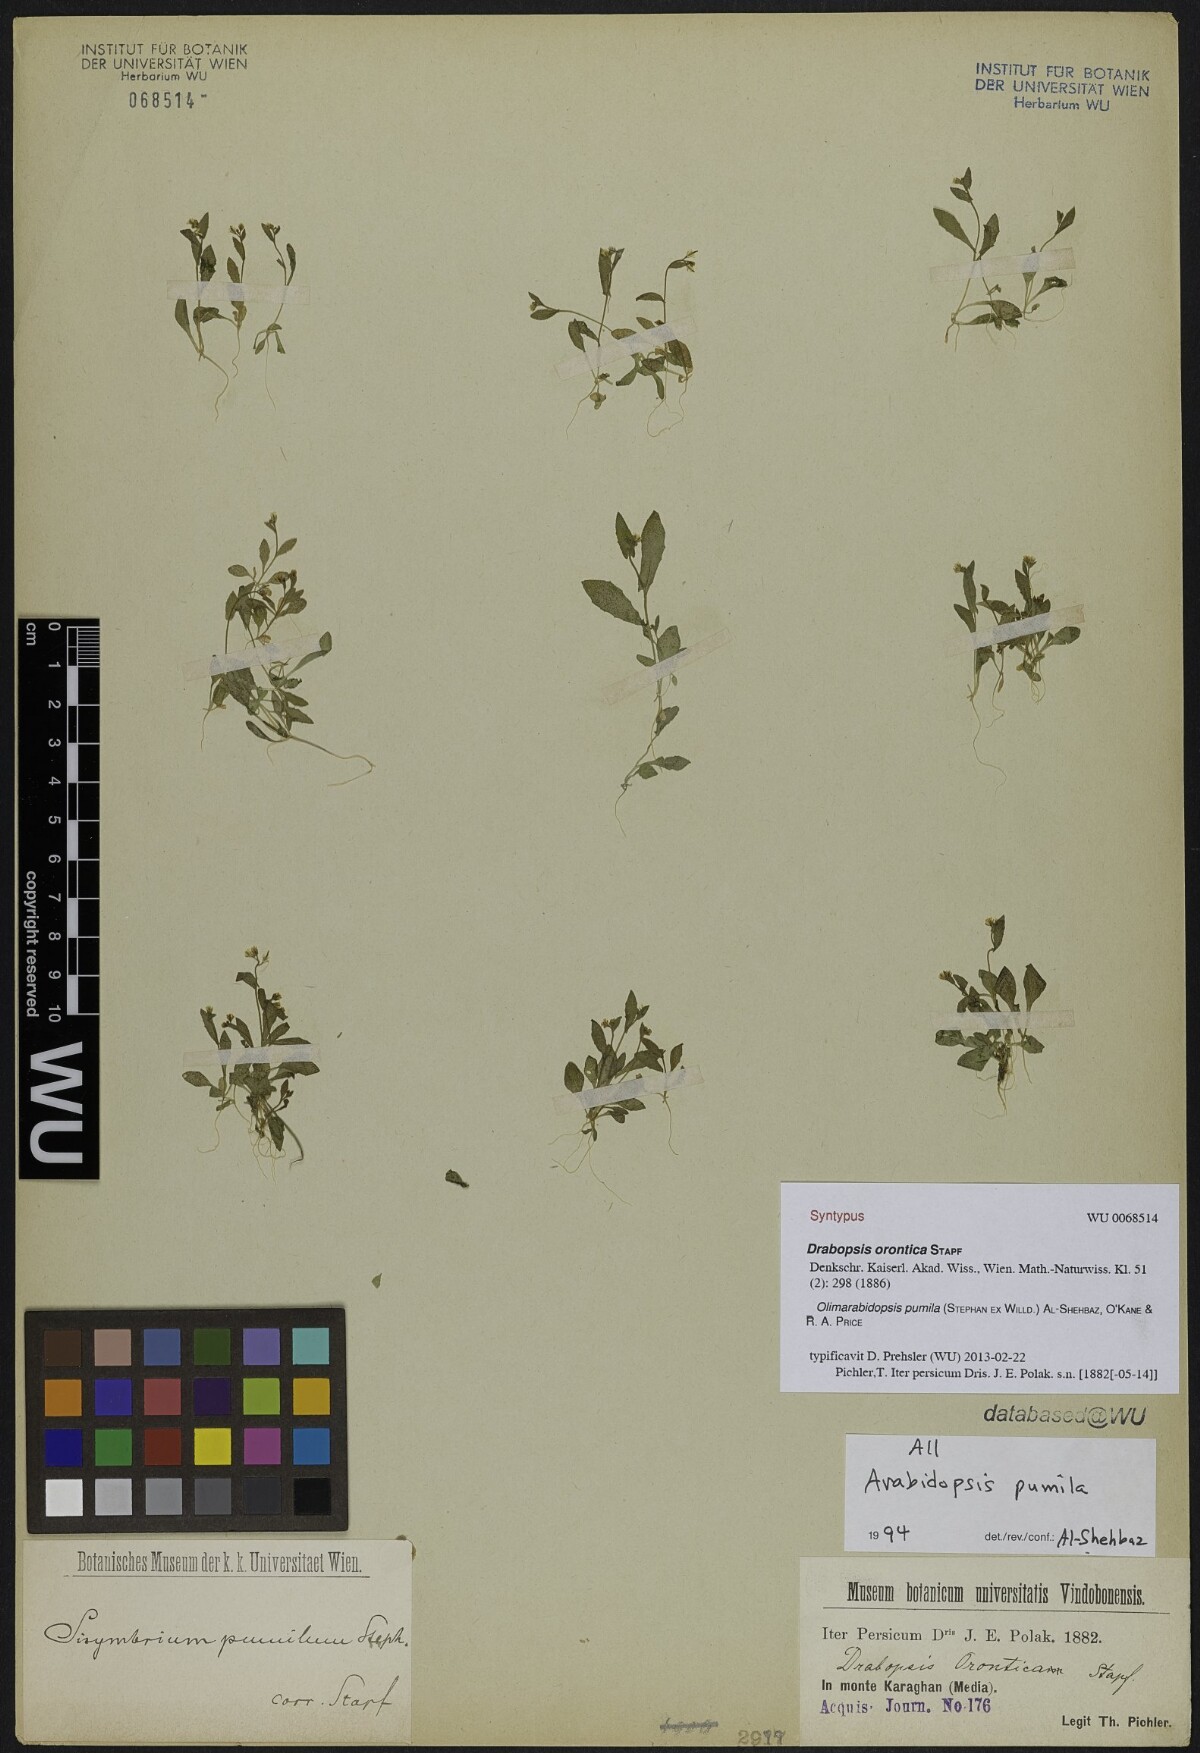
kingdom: Plantae
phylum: Tracheophyta
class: Magnoliopsida
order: Brassicales
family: Brassicaceae
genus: Sisymbrium
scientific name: Sisymbrium pumilum
